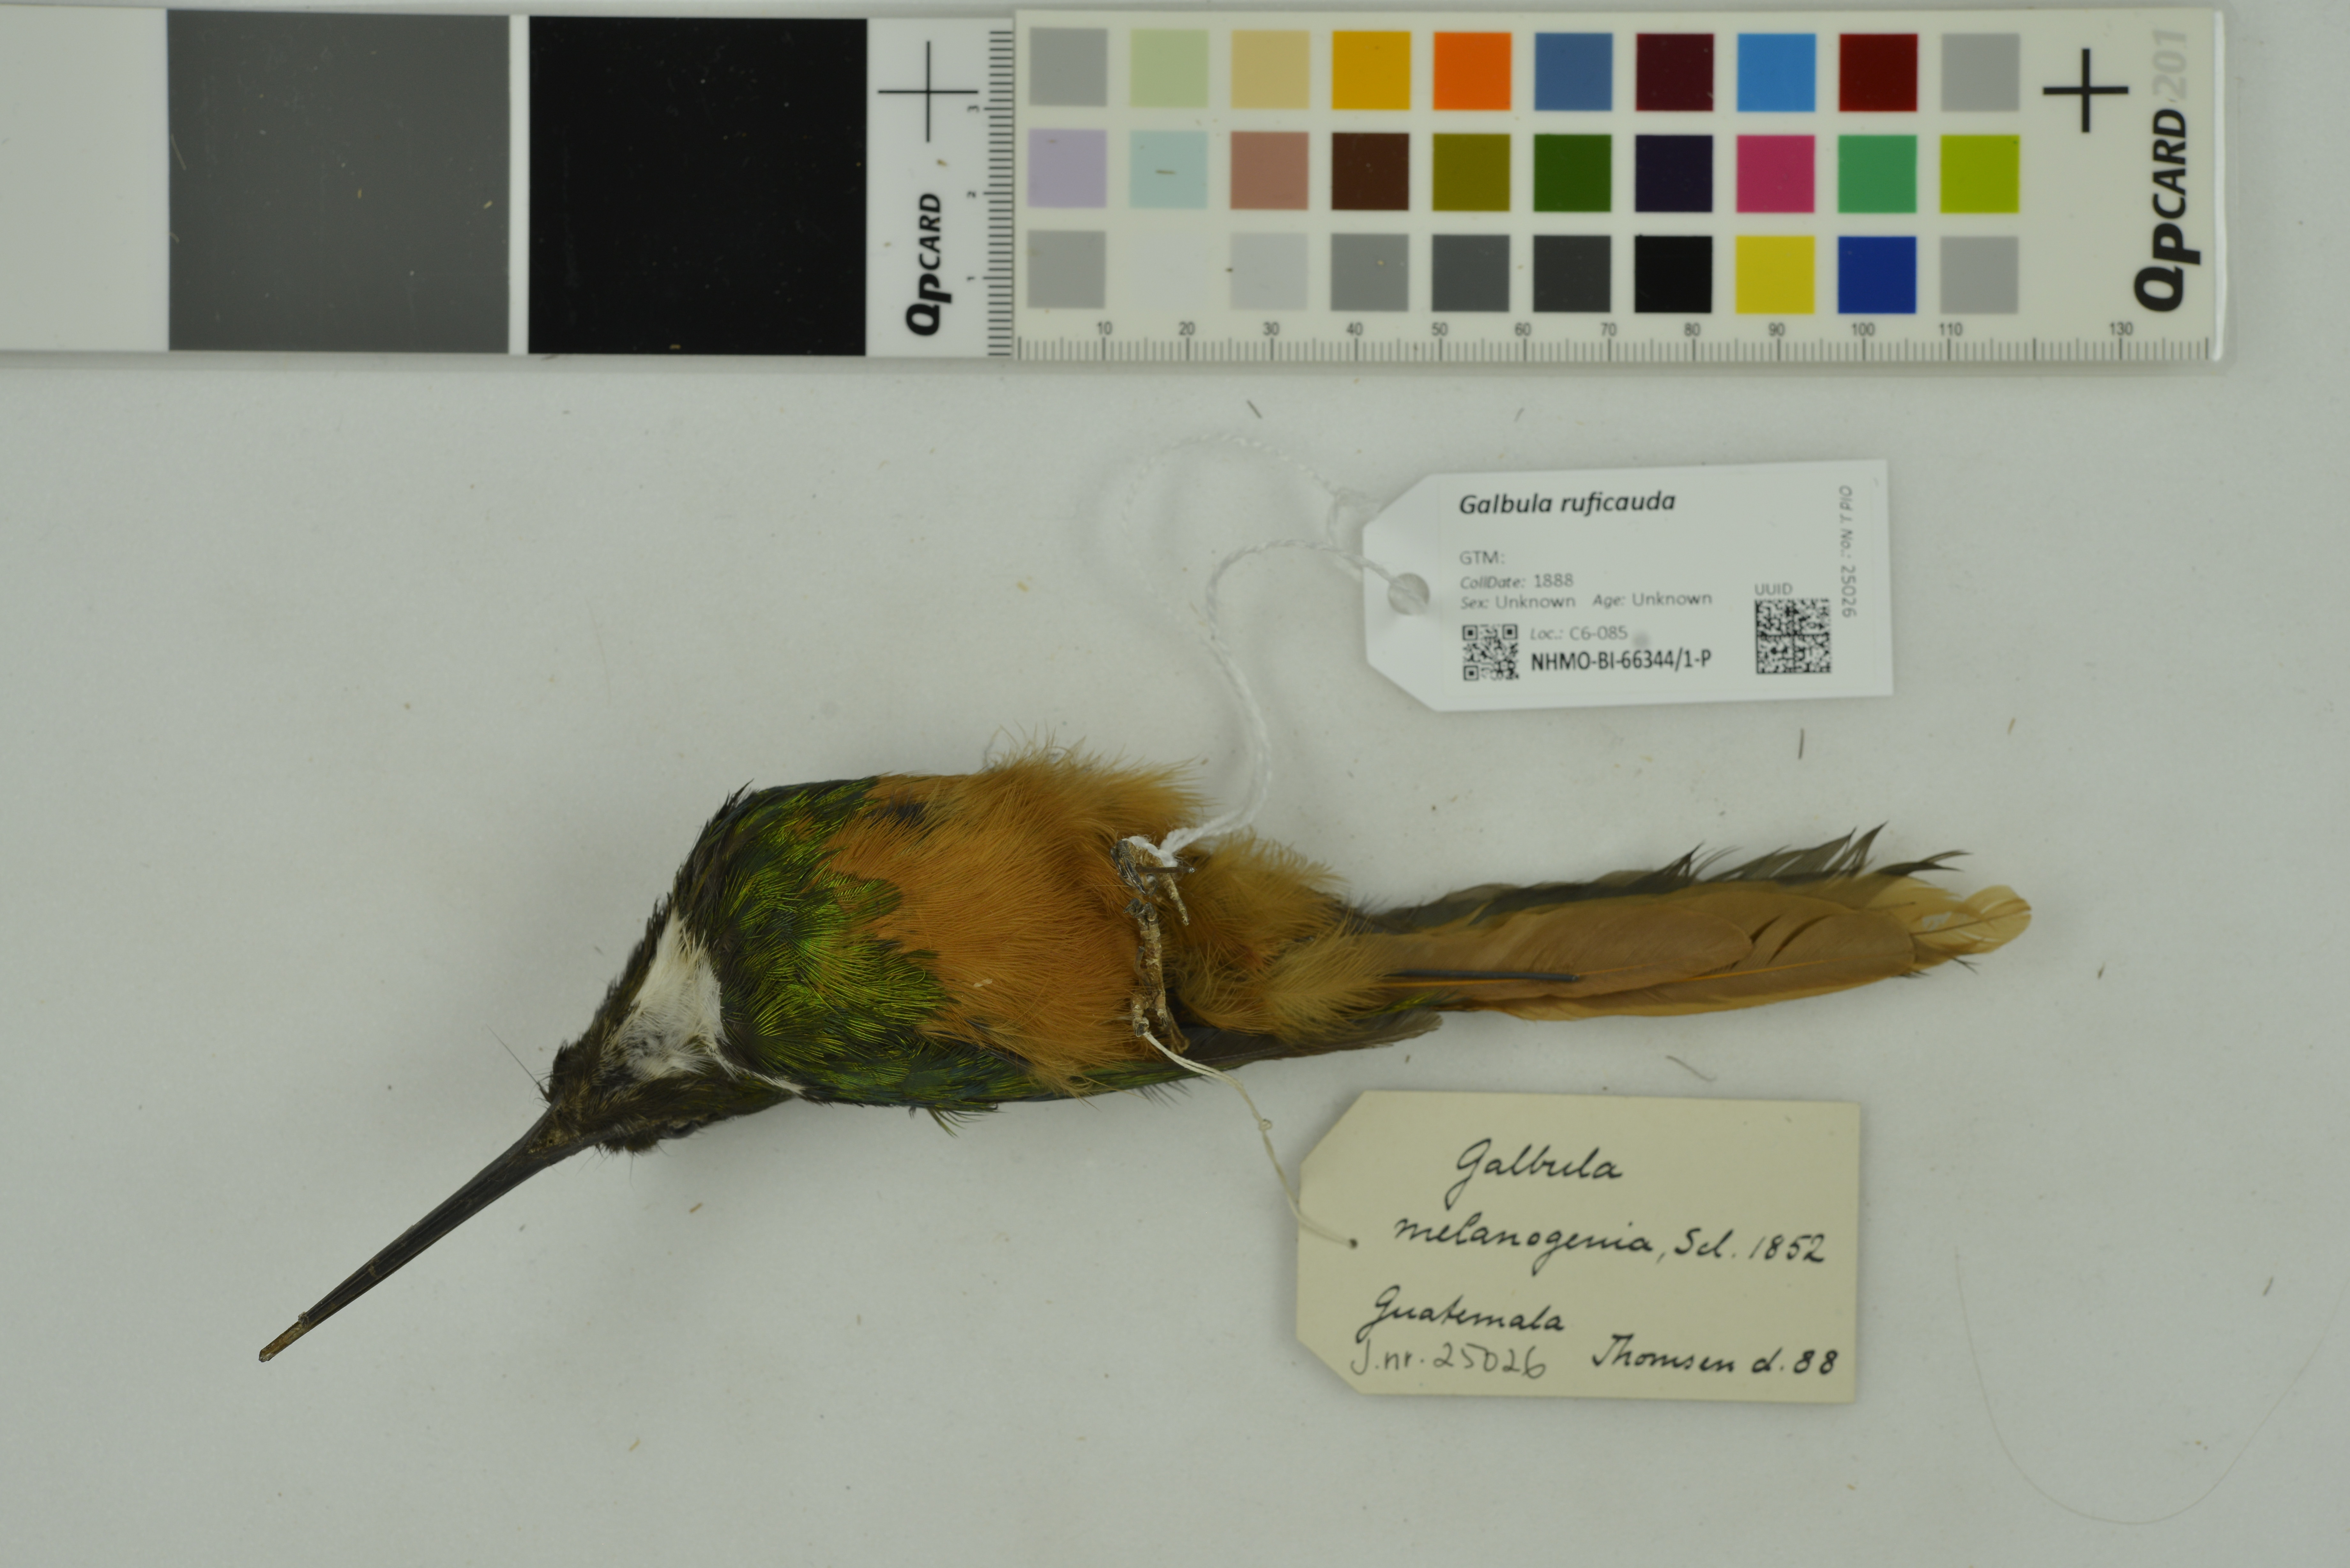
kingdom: Animalia
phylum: Chordata
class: Aves
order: Piciformes
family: Galbulidae
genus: Galbula
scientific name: Galbula ruficauda
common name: Rufous-tailed jacamar
